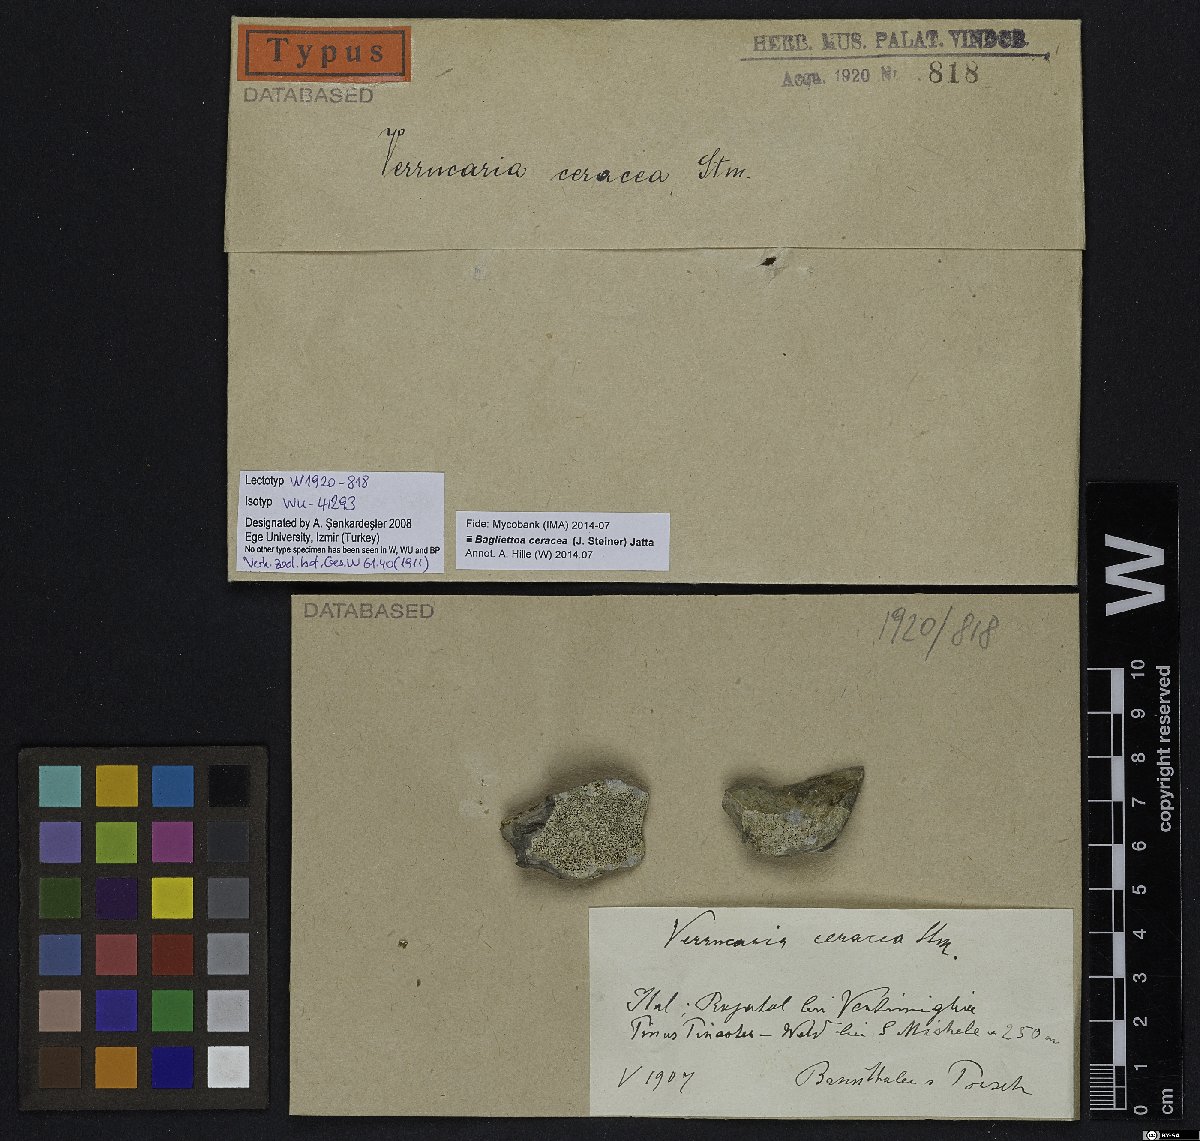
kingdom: Fungi
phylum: Ascomycota
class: Eurotiomycetes
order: Verrucariales
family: Verrucariaceae
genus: Bagliettoa
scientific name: Bagliettoa ceracea
